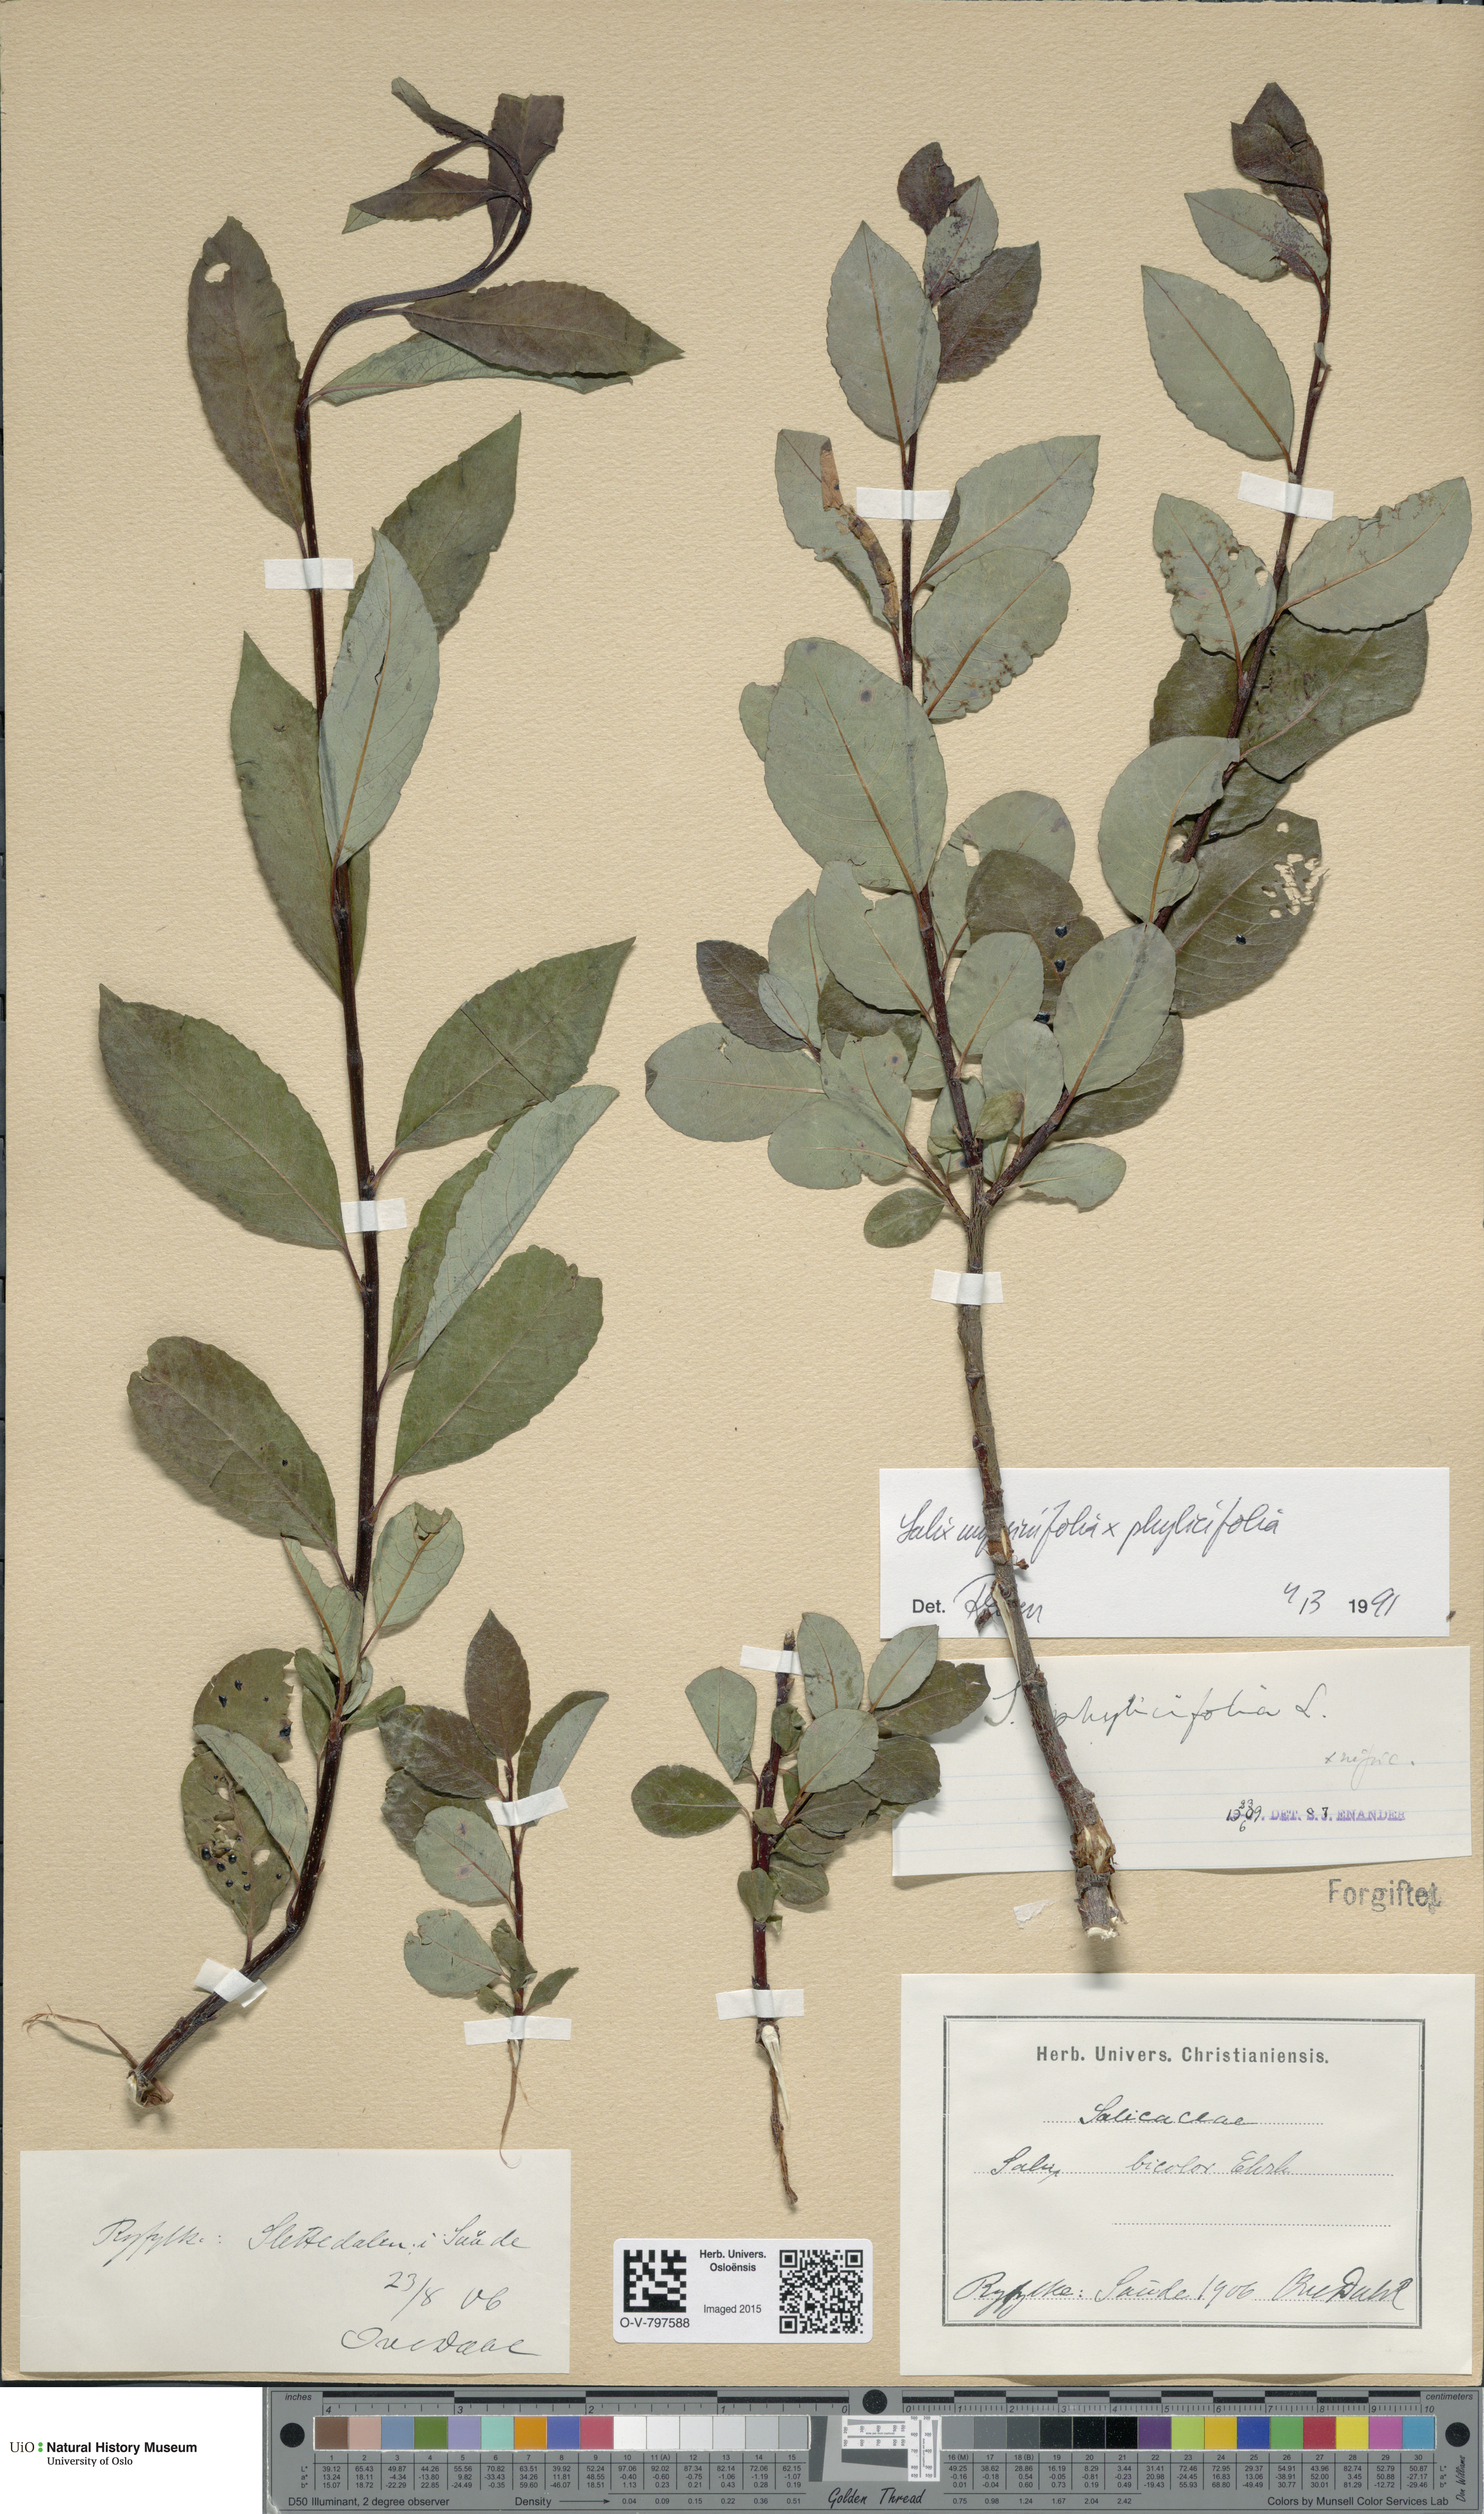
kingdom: Plantae
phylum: Tracheophyta
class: Magnoliopsida
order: Malpighiales
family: Salicaceae
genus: Salix
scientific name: Salix
